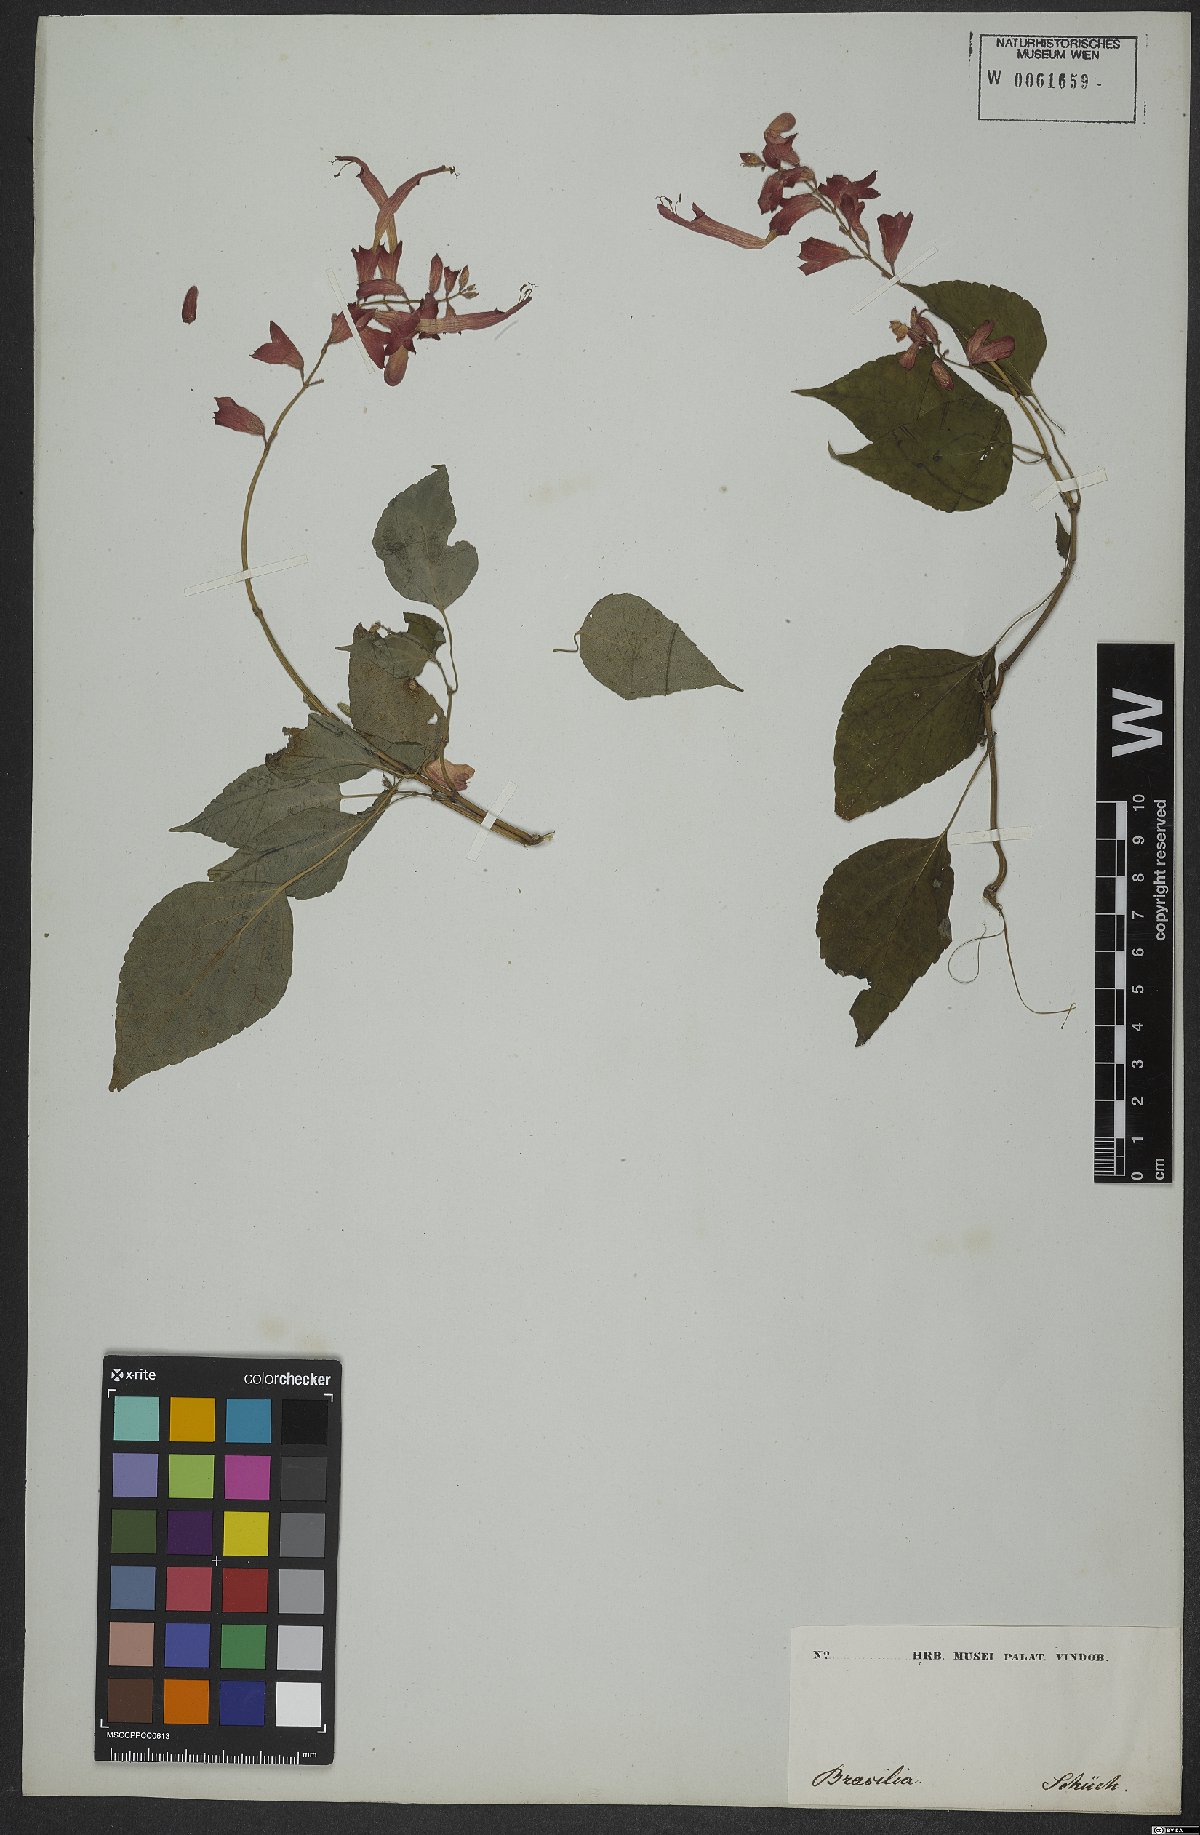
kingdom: Plantae
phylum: Tracheophyta
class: Magnoliopsida
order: Lamiales
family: Lamiaceae
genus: Salvia
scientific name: Salvia splendens
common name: Scarlet sage
